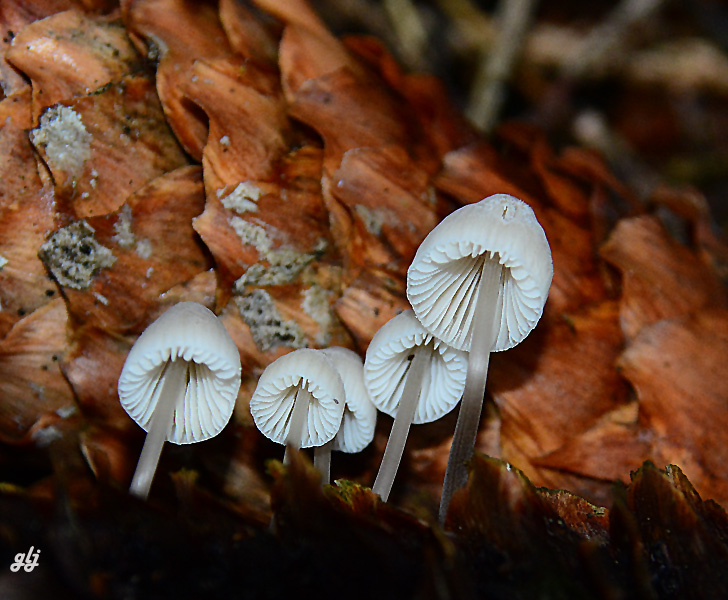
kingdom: Fungi
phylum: Basidiomycota
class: Agaricomycetes
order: Agaricales
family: Mycenaceae
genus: Mycena
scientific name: Mycena
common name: huesvamp
